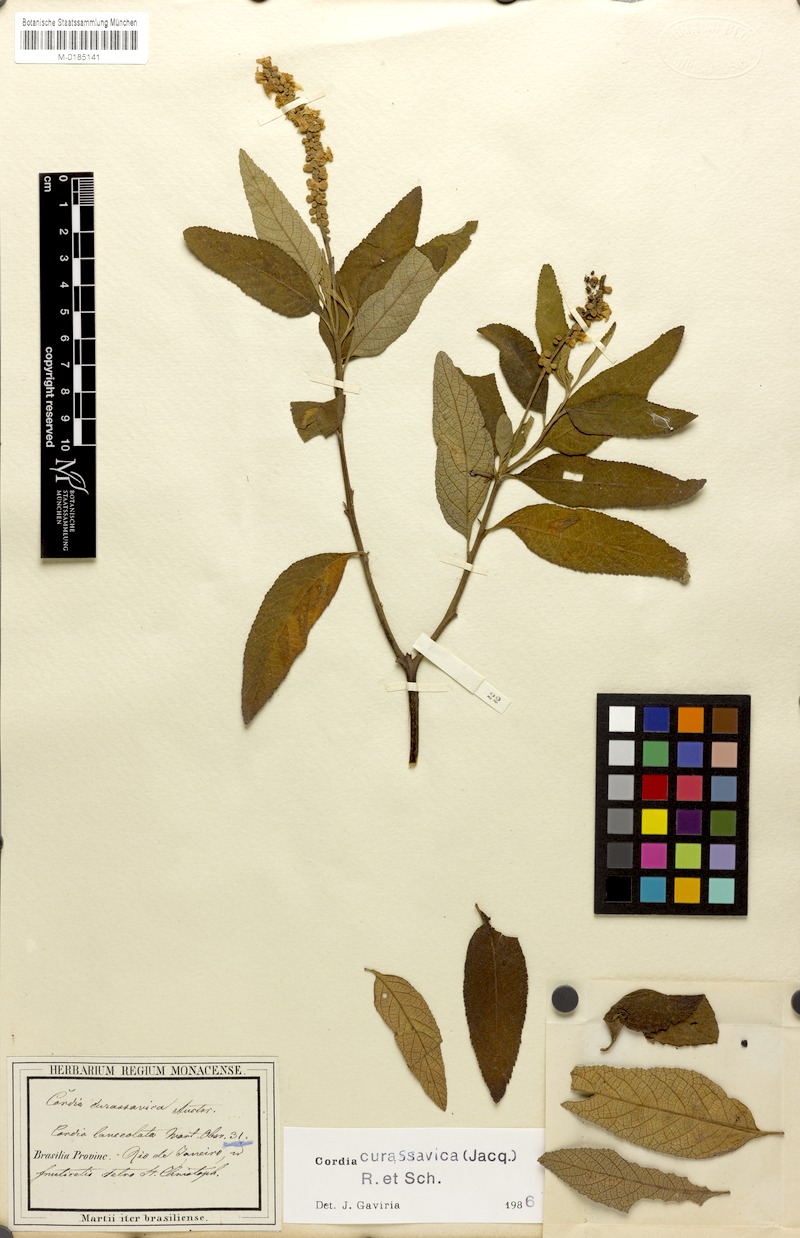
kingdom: Plantae
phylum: Tracheophyta
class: Magnoliopsida
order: Boraginales
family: Cordiaceae
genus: Varronia
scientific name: Varronia curassavica
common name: Black sage
